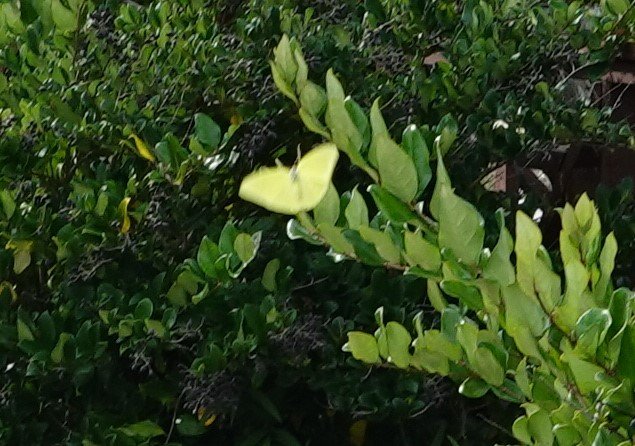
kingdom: Animalia
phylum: Arthropoda
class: Insecta
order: Lepidoptera
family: Pieridae
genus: Phoebis
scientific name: Phoebis sennae
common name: Cloudless Sulphur
